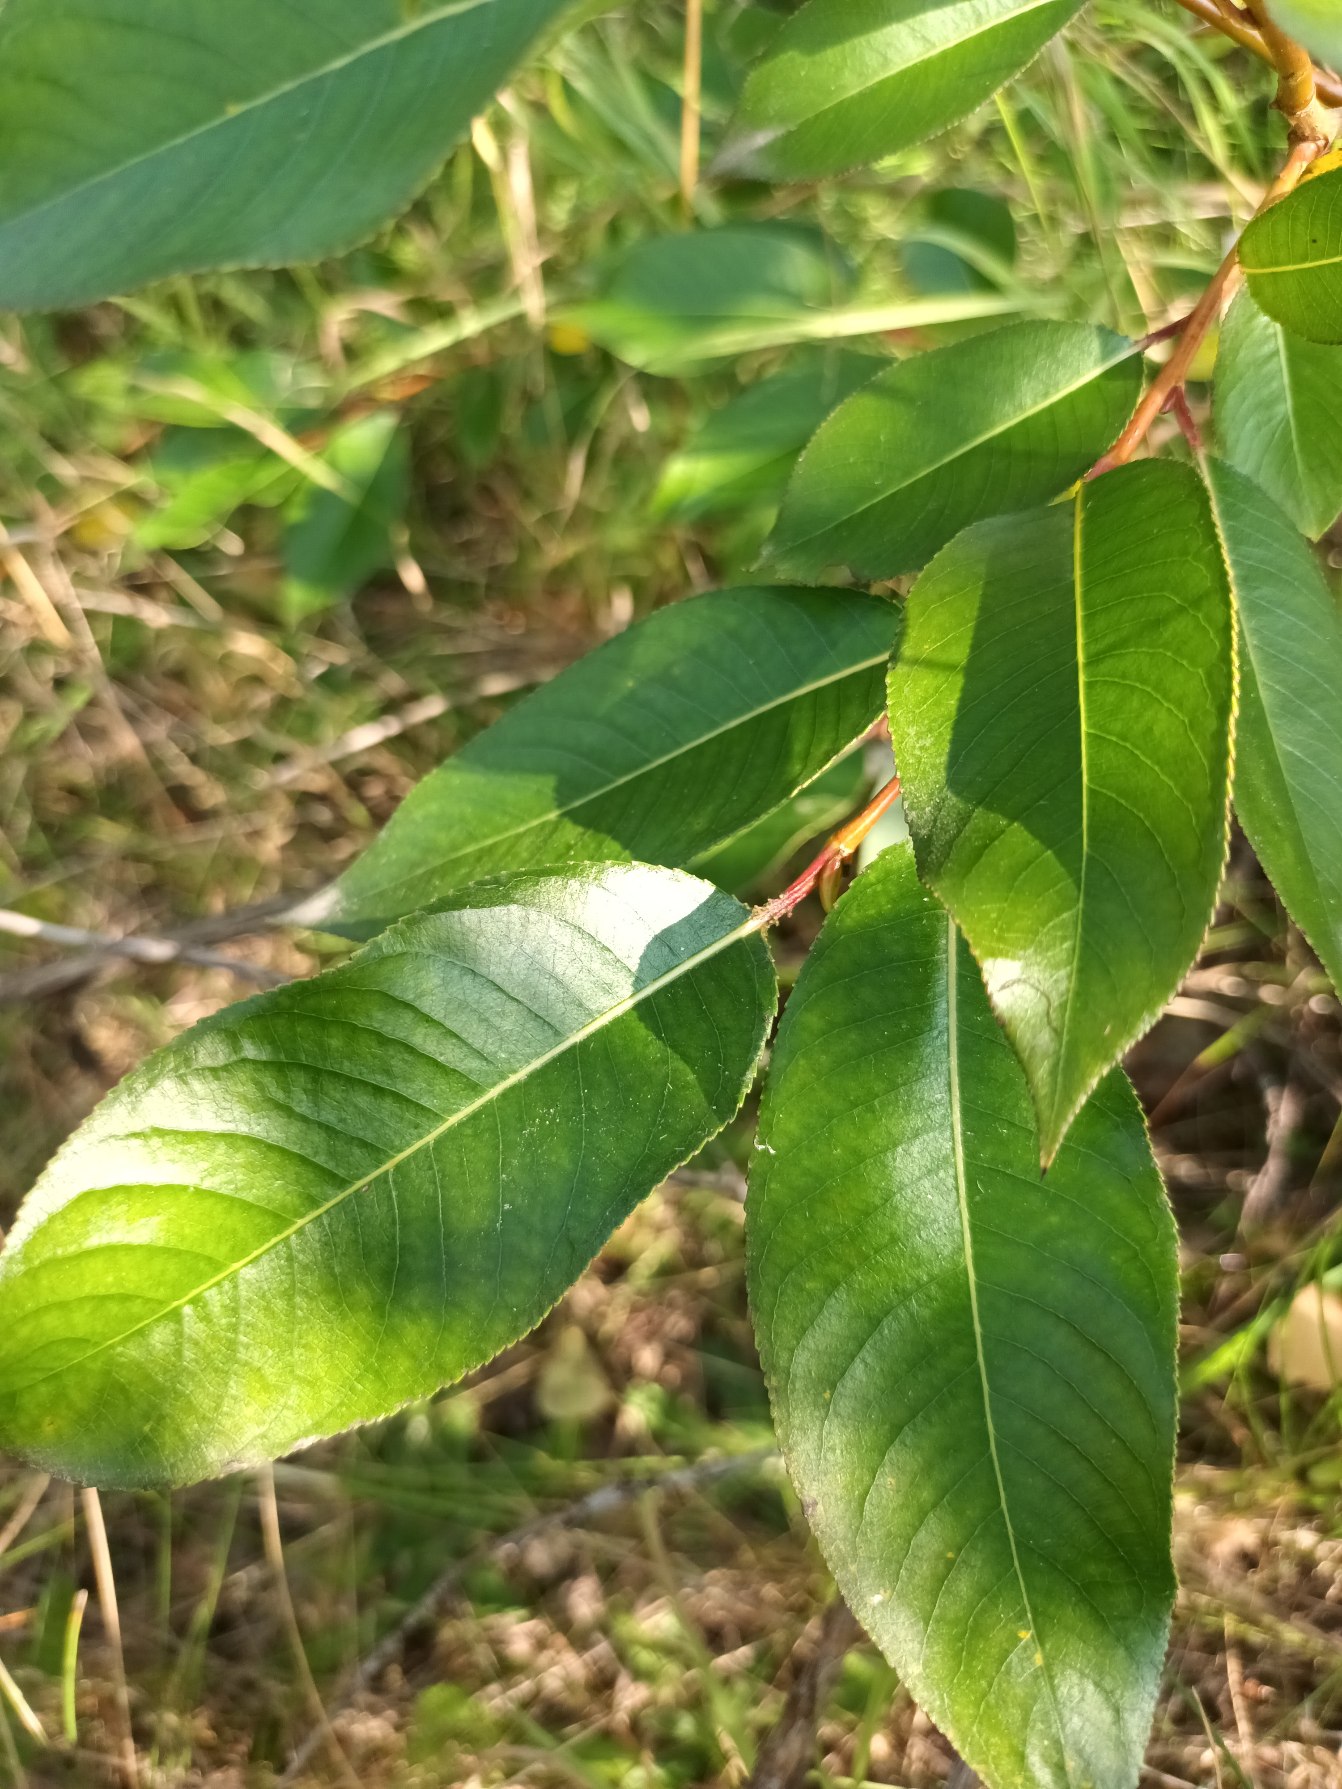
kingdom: Plantae
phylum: Tracheophyta
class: Magnoliopsida
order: Malpighiales
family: Salicaceae
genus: Salix
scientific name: Salix pentandra
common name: Femhannet pil
